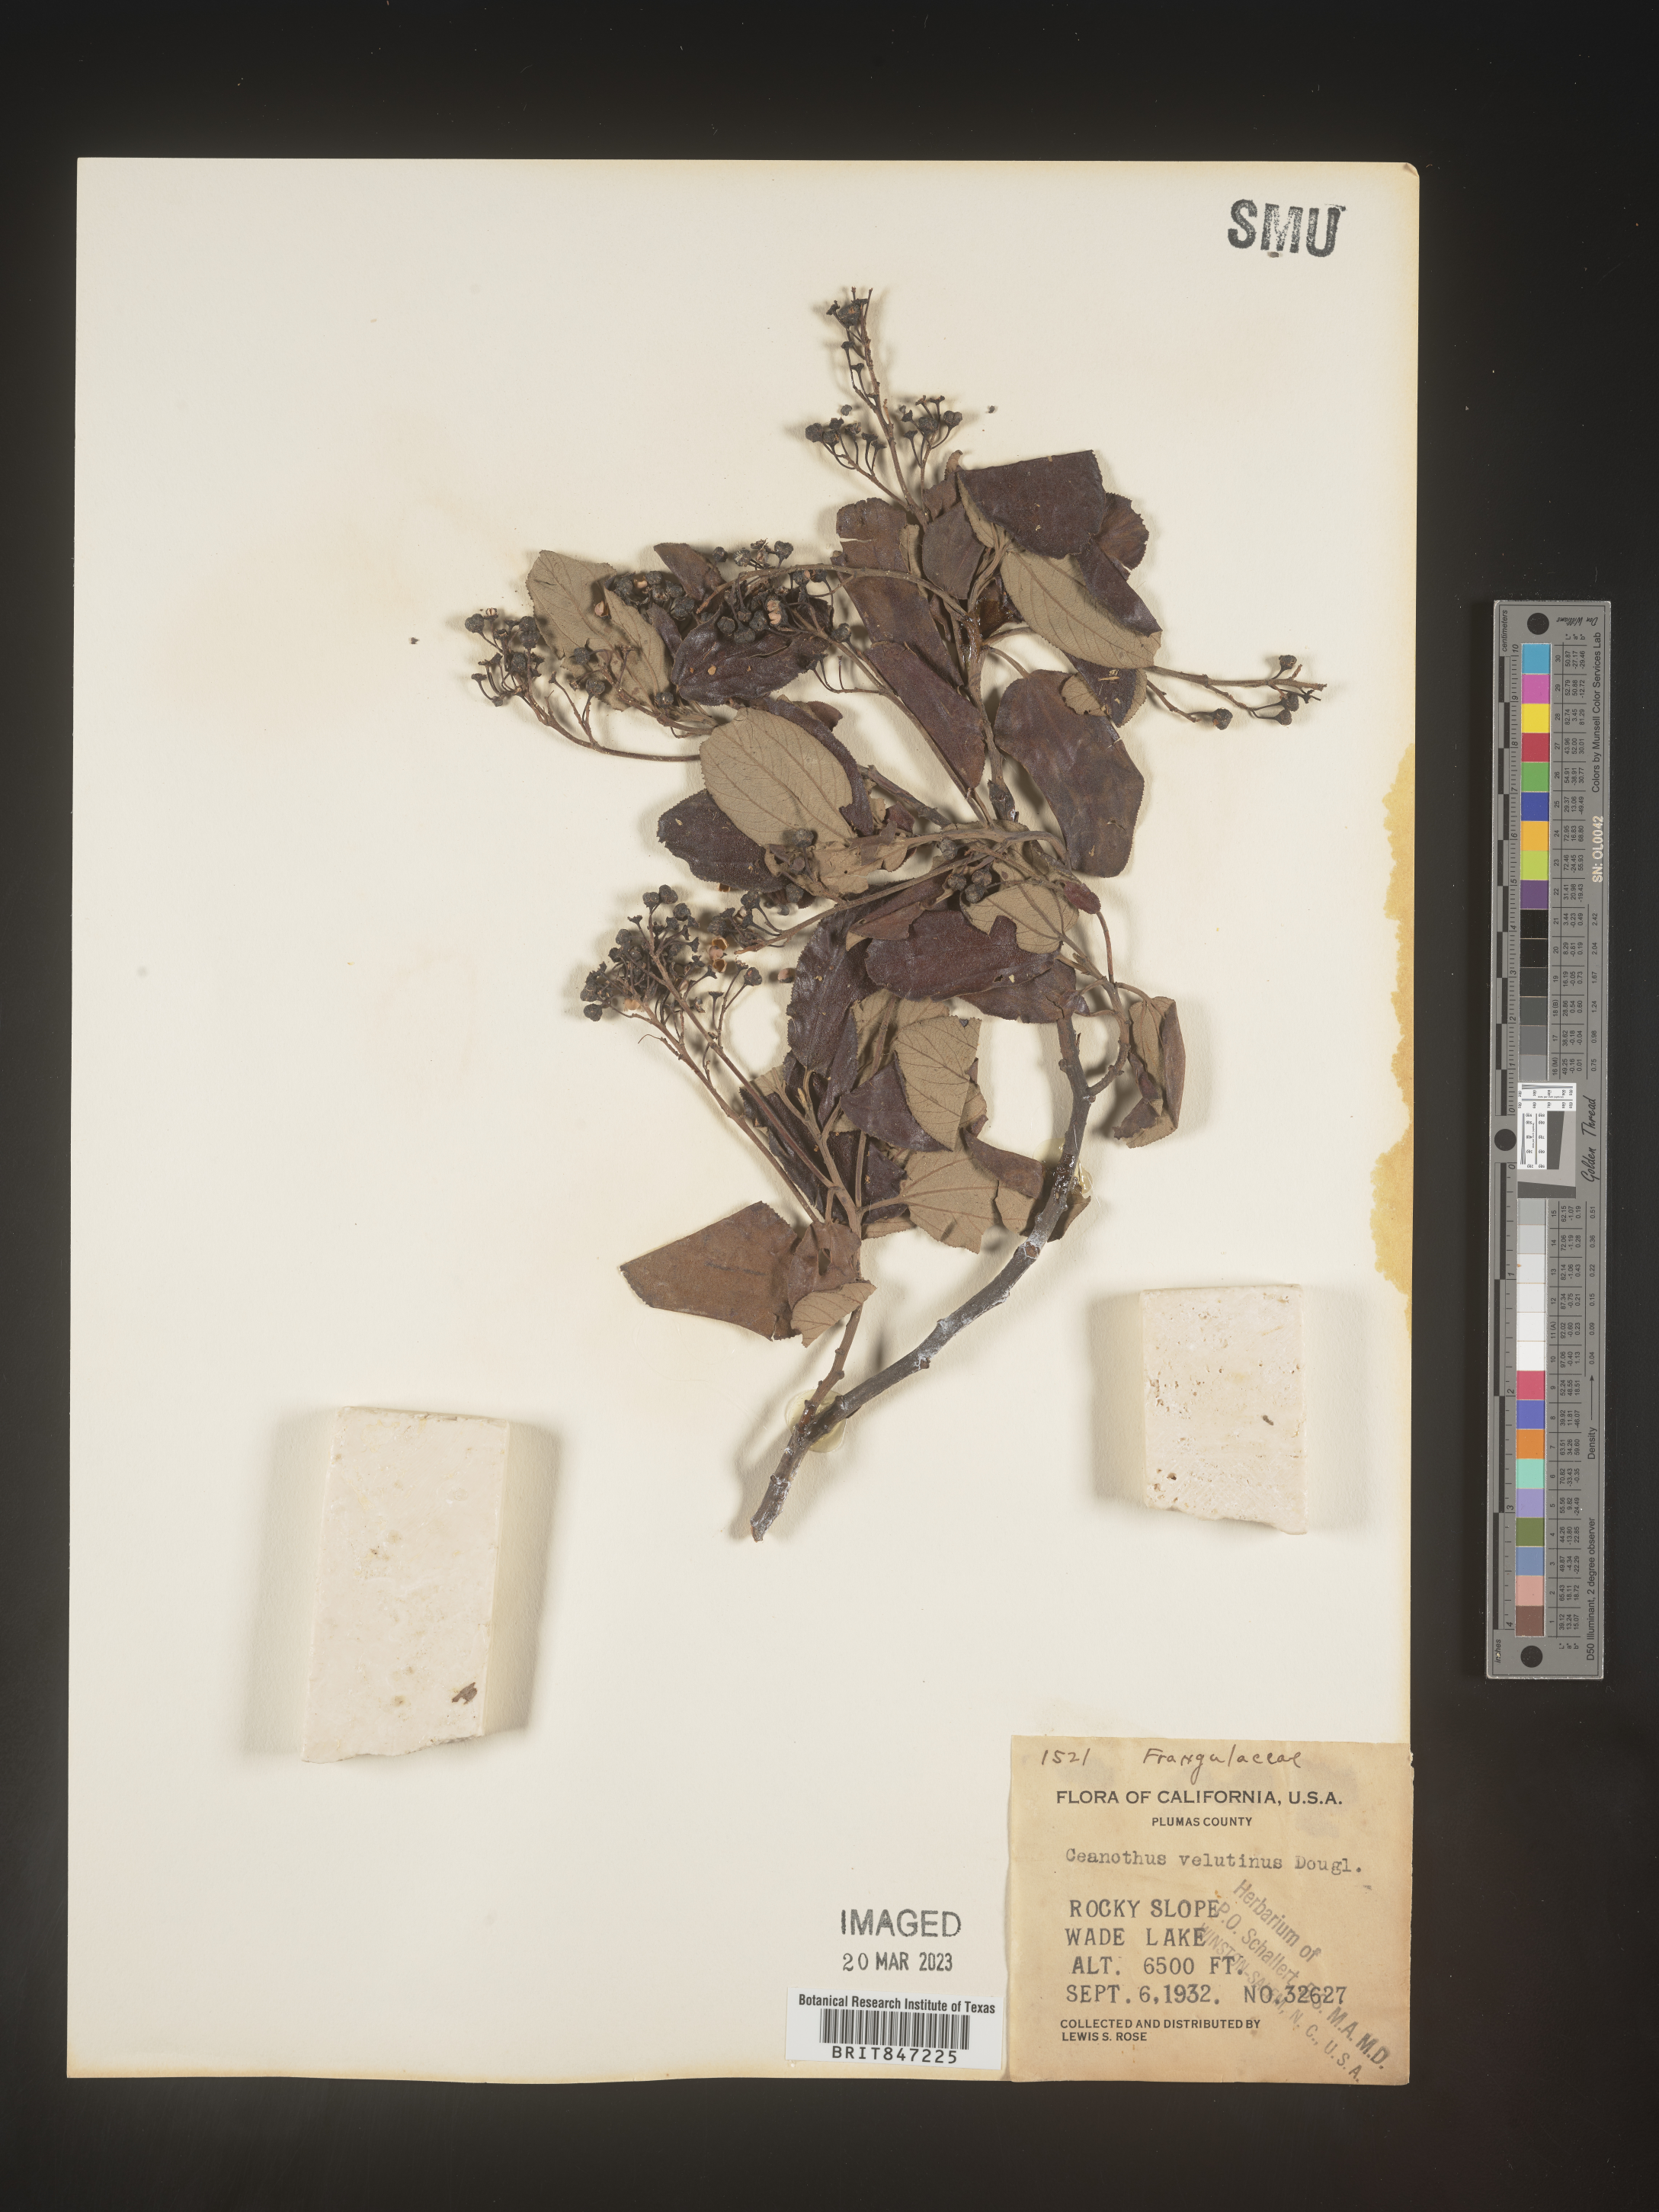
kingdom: Plantae
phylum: Tracheophyta
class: Magnoliopsida
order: Rosales
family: Rhamnaceae
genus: Ceanothus
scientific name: Ceanothus velutinus
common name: Snowbrush
